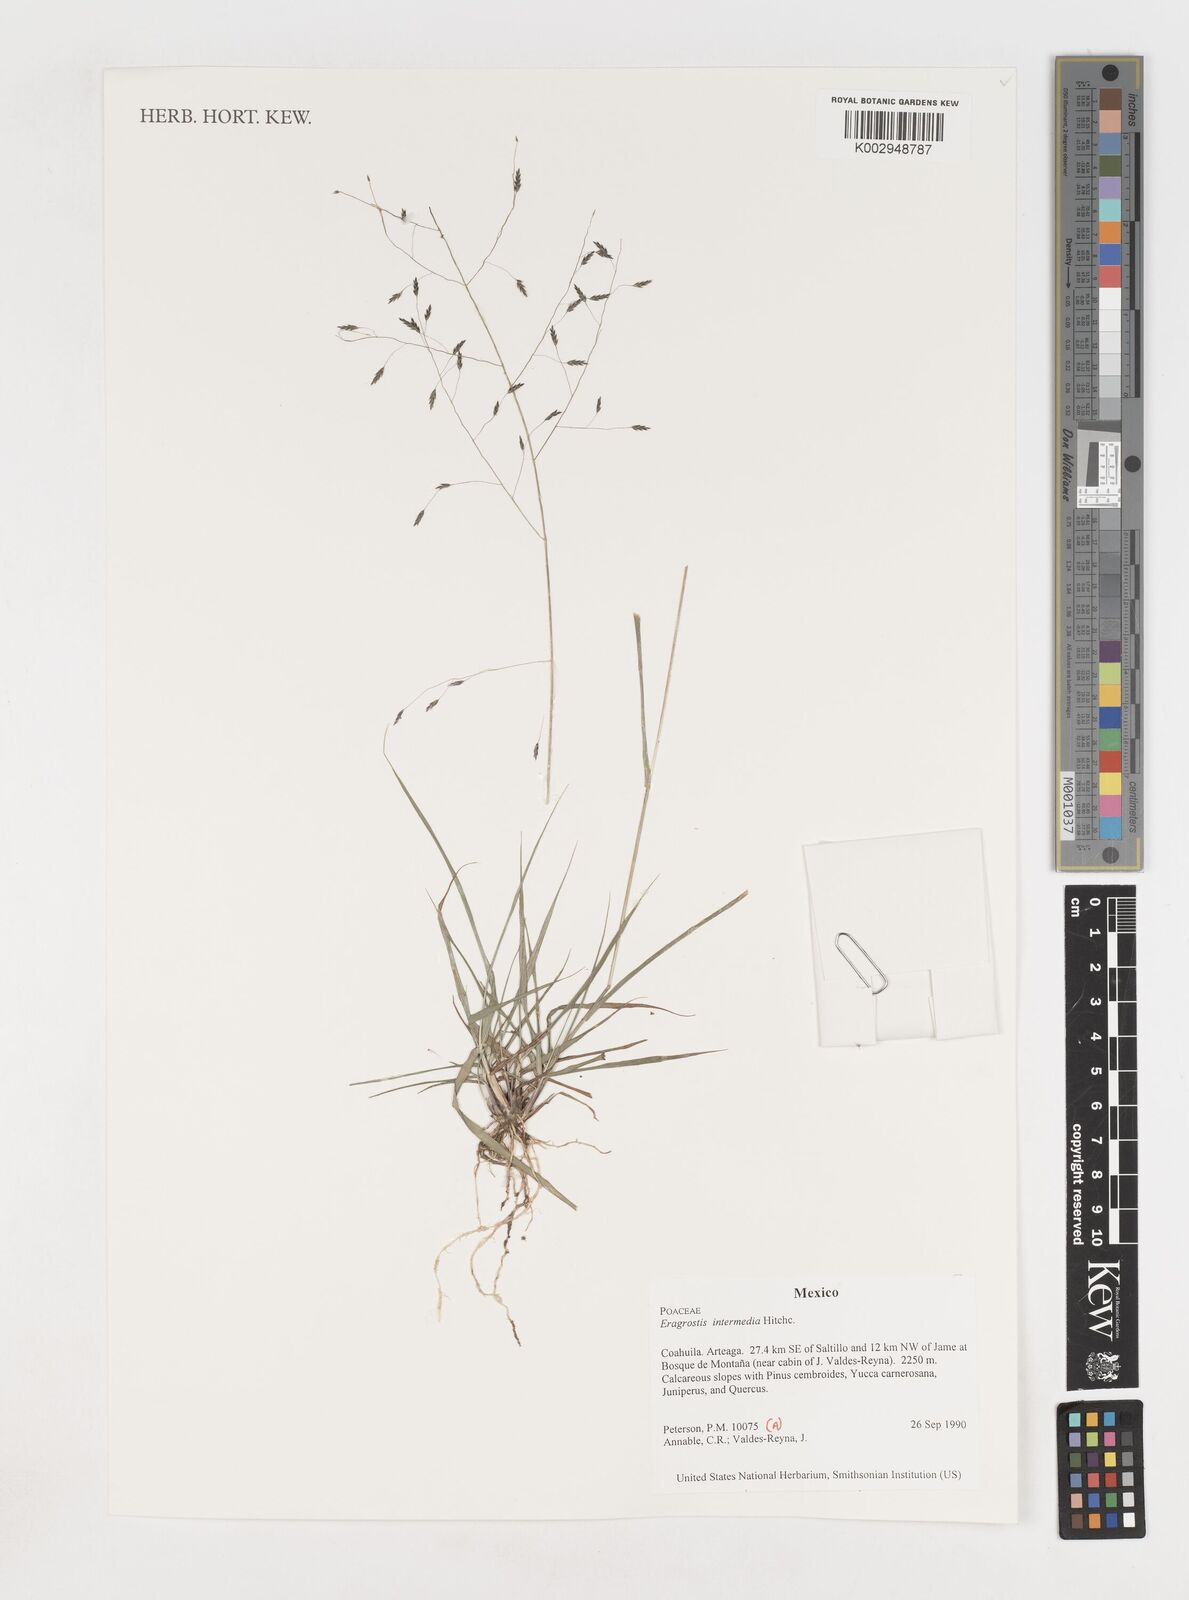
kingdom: Plantae
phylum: Tracheophyta
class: Liliopsida
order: Poales
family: Poaceae
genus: Eragrostis
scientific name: Eragrostis intermedia
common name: Plains love grass
